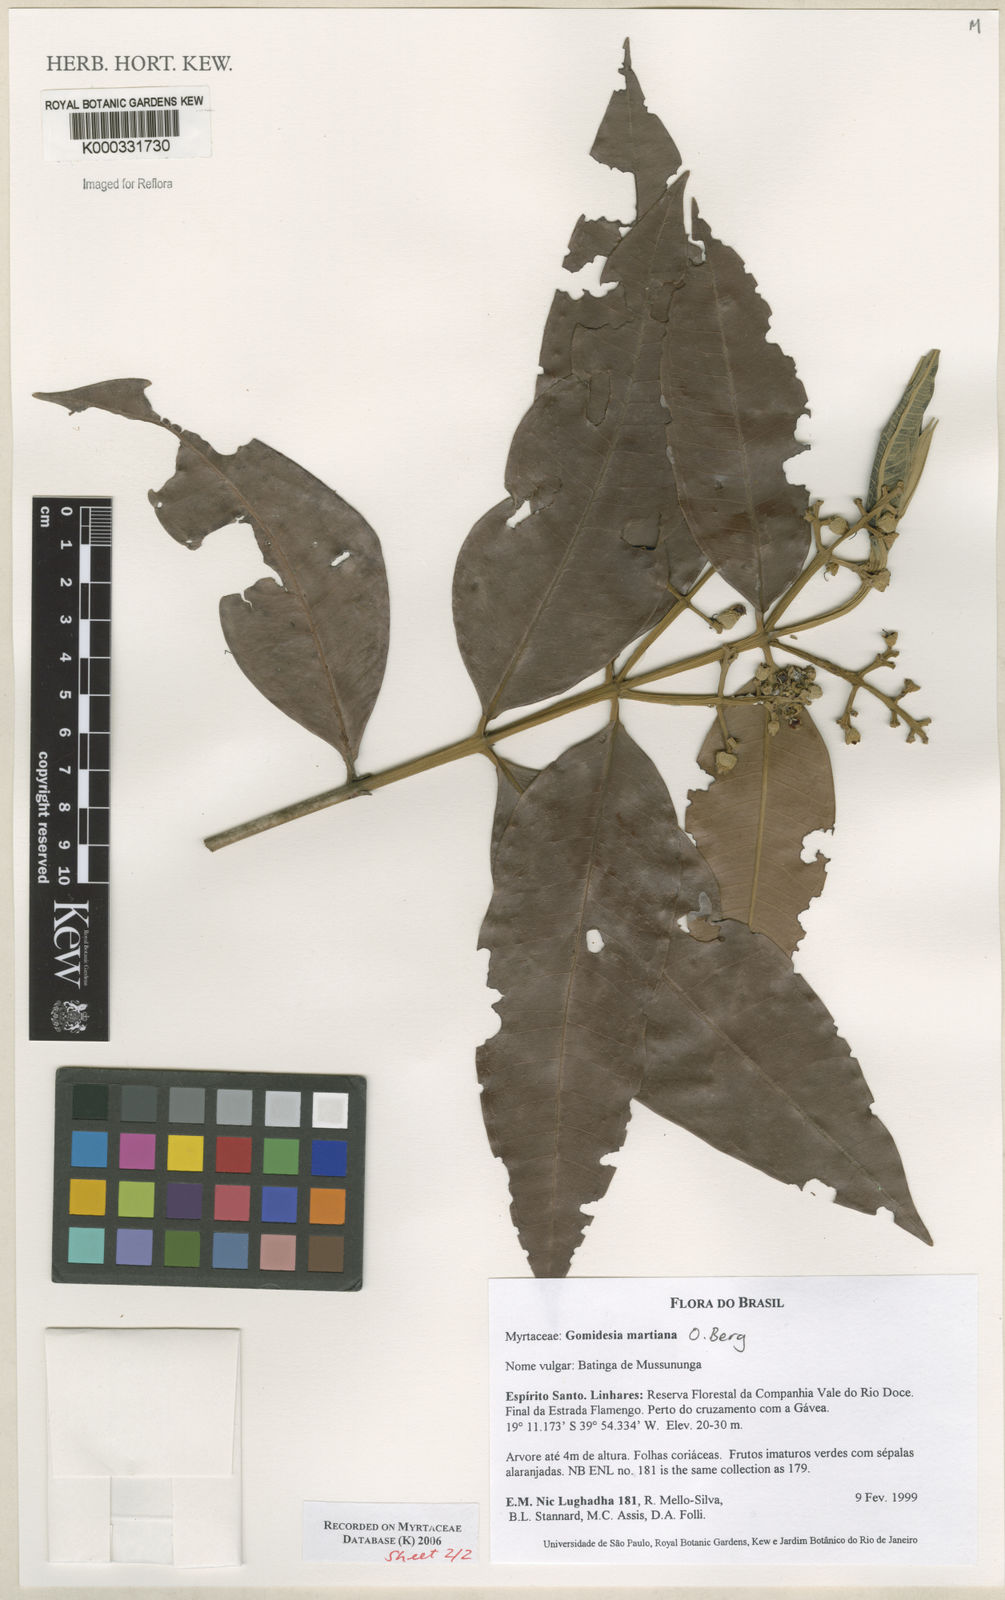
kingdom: Plantae
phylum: Tracheophyta
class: Magnoliopsida
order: Myrtales
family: Myrtaceae
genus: Myrcia
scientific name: Myrcia vittoriana
